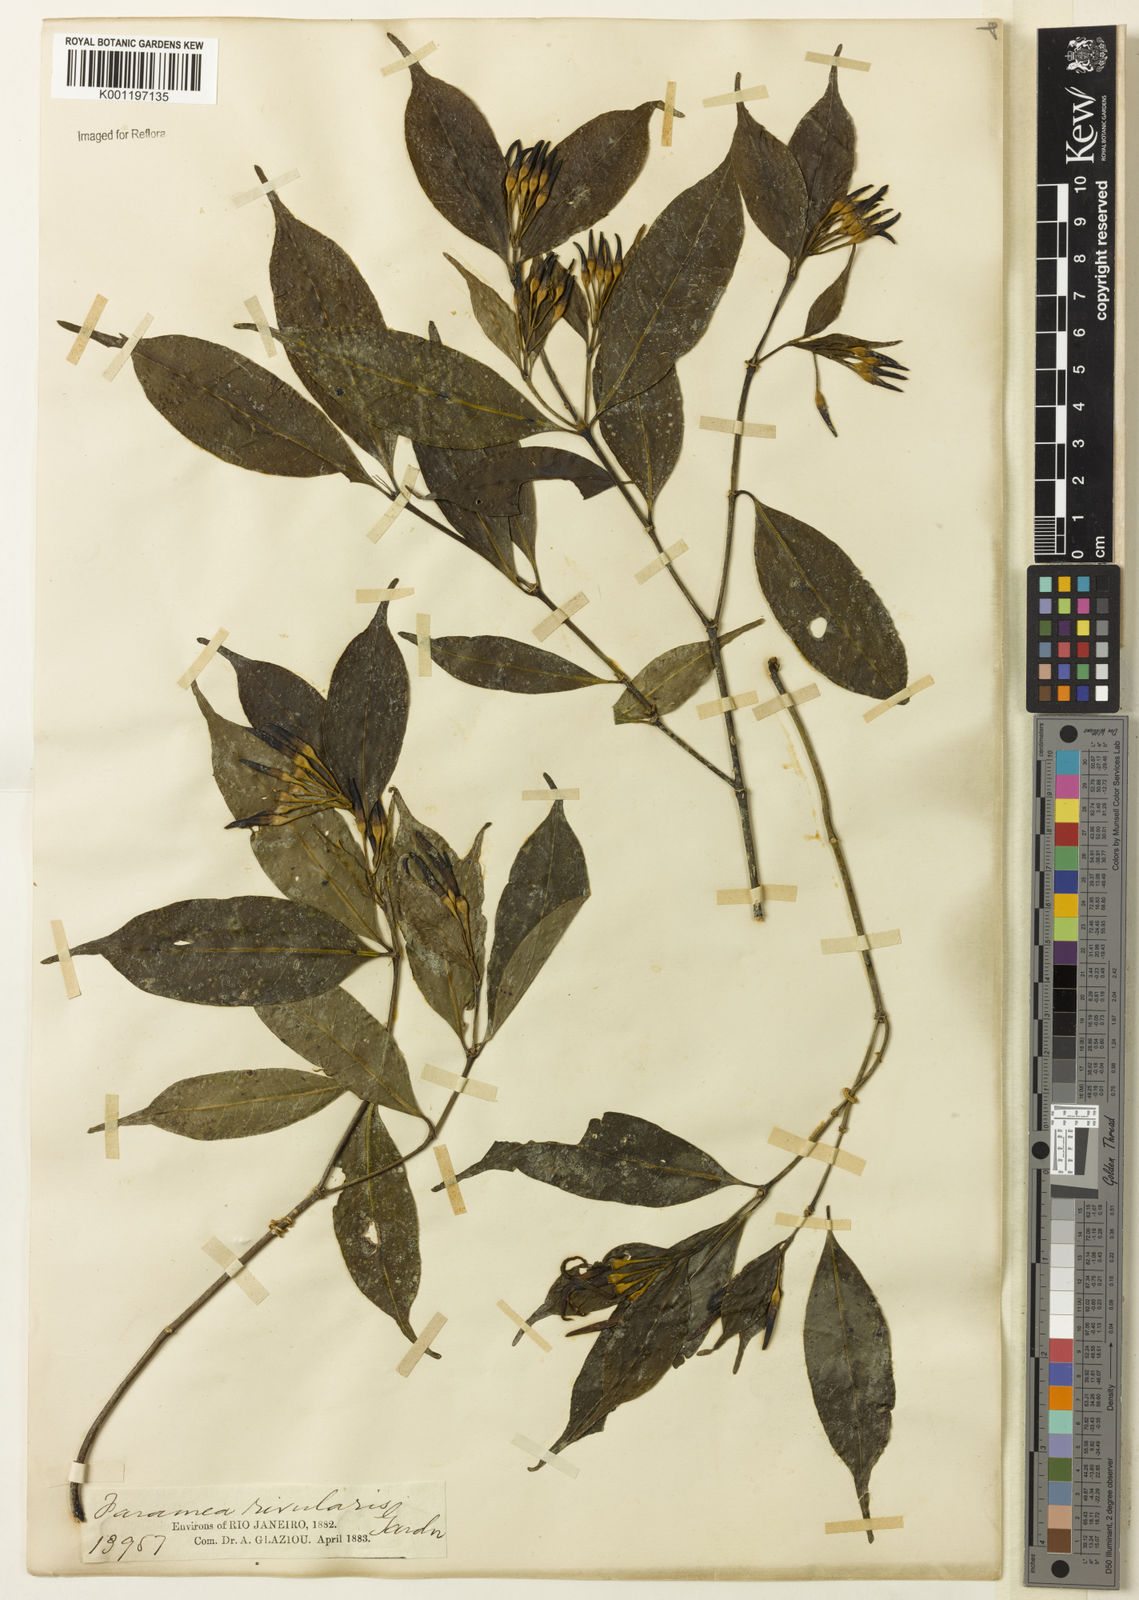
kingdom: Plantae
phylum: Tracheophyta
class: Magnoliopsida
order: Gentianales
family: Rubiaceae
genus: Faramea
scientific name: Faramea caudata
